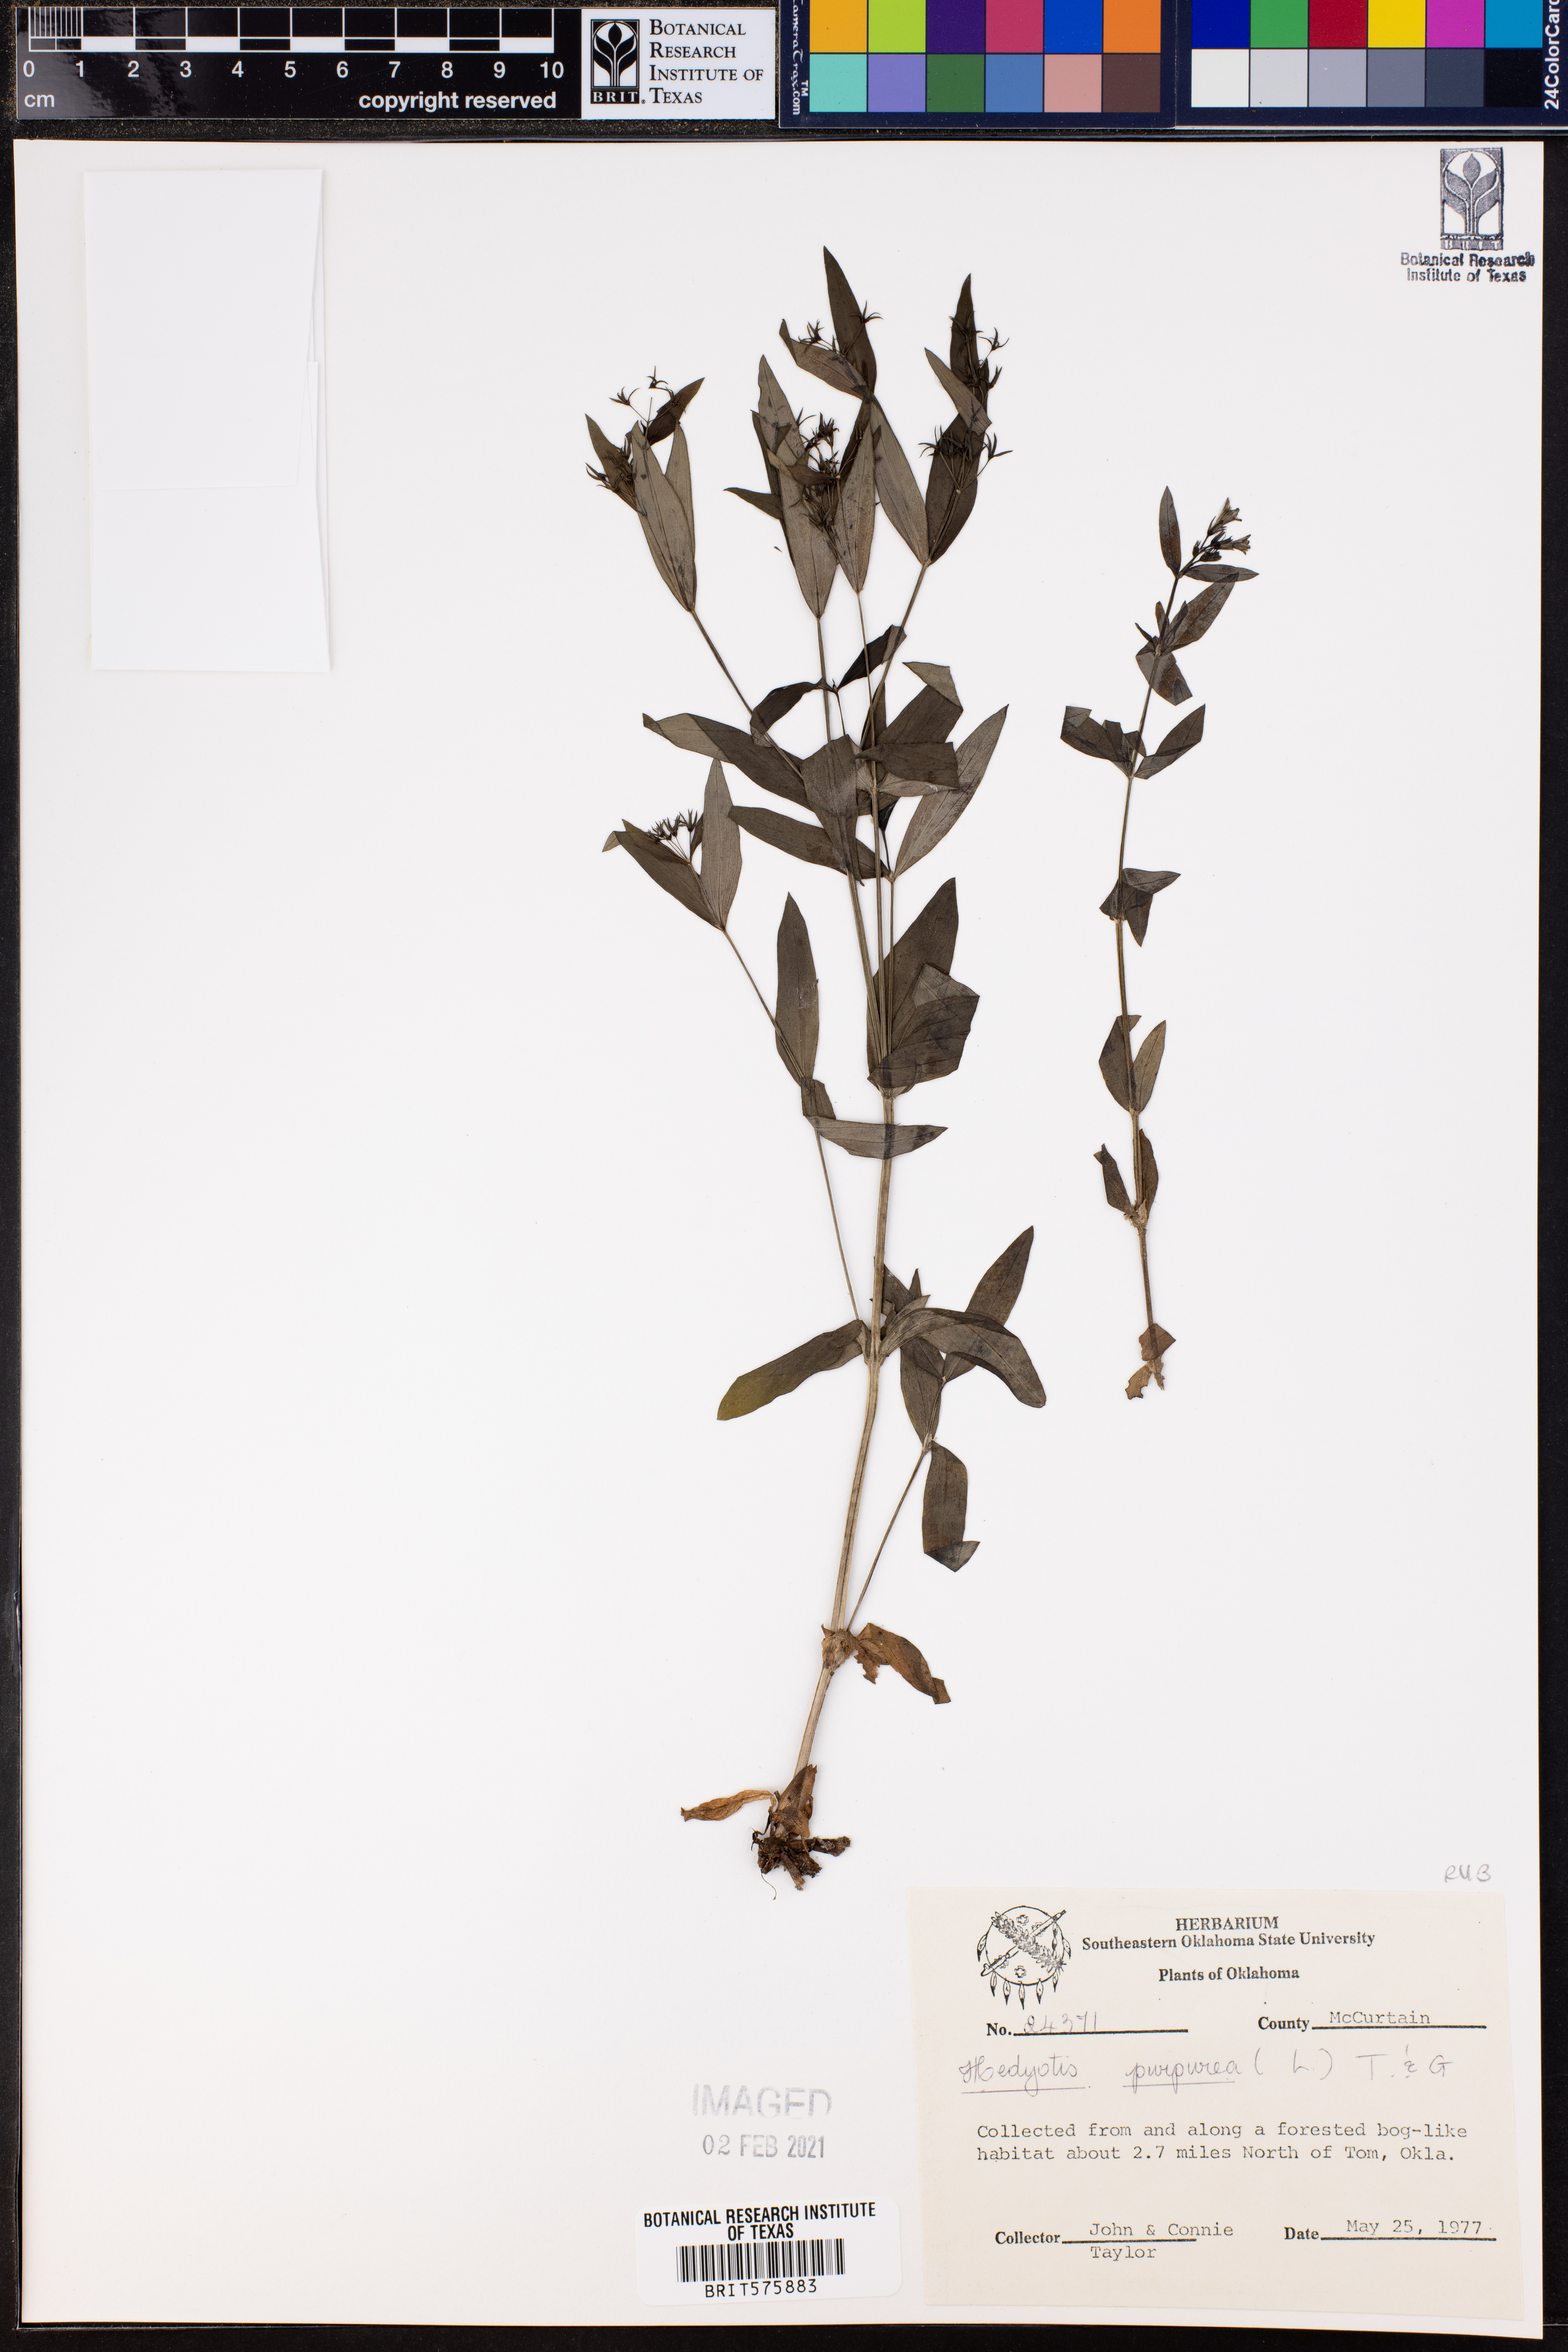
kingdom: Plantae
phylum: Tracheophyta
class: Magnoliopsida
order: Gentianales
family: Rubiaceae
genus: Houstonia
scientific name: Houstonia purpurea
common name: Summer bluet
